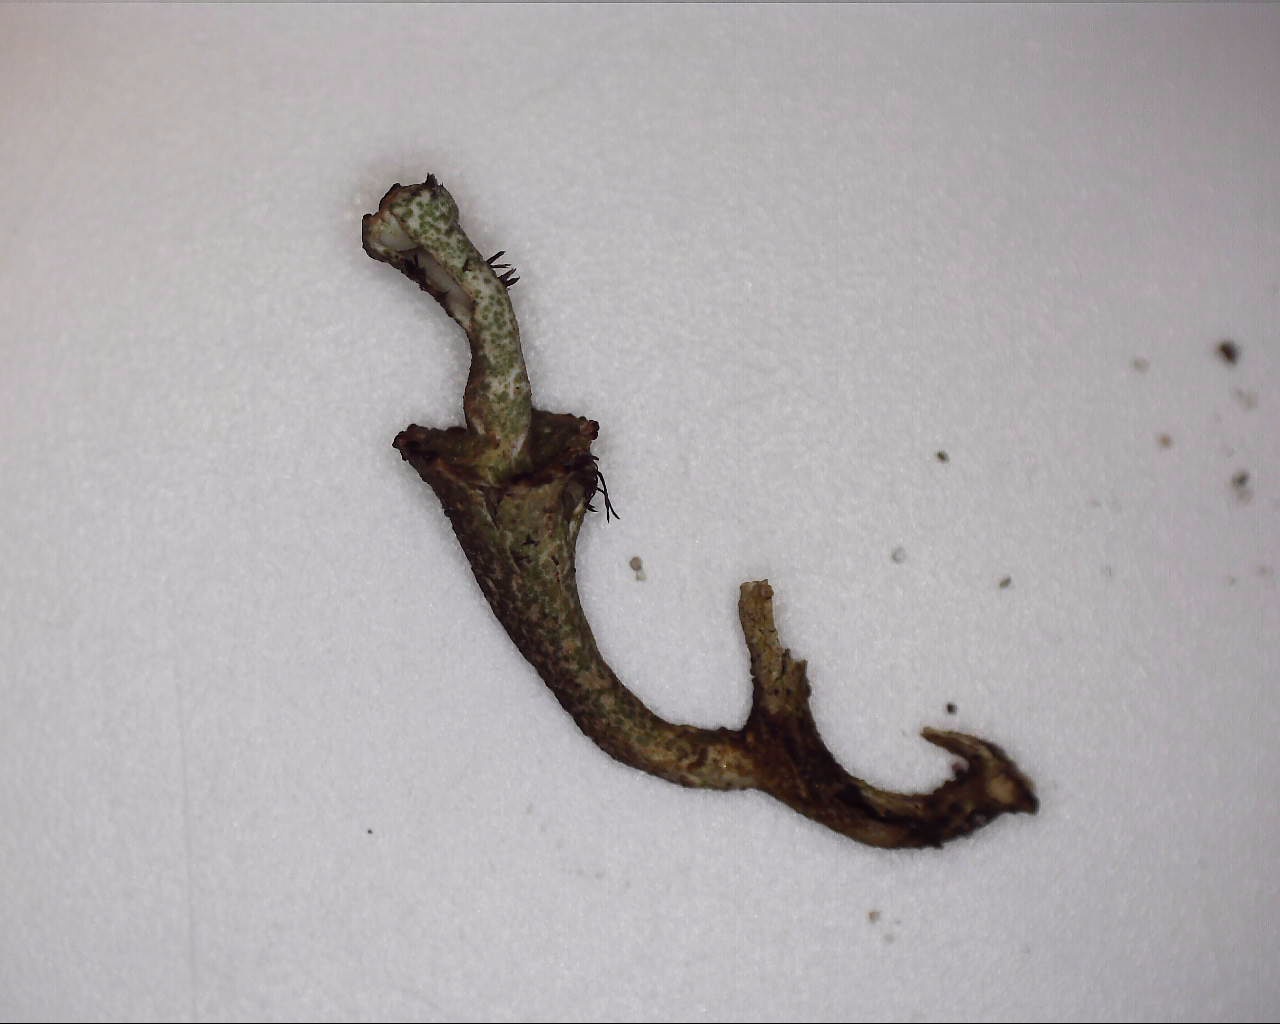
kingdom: Fungi
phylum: Ascomycota
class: Lecanoromycetes
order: Lecanorales
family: Cladoniaceae
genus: Cladonia
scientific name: Cladonia cervicornis
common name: gevir-bægerlav
